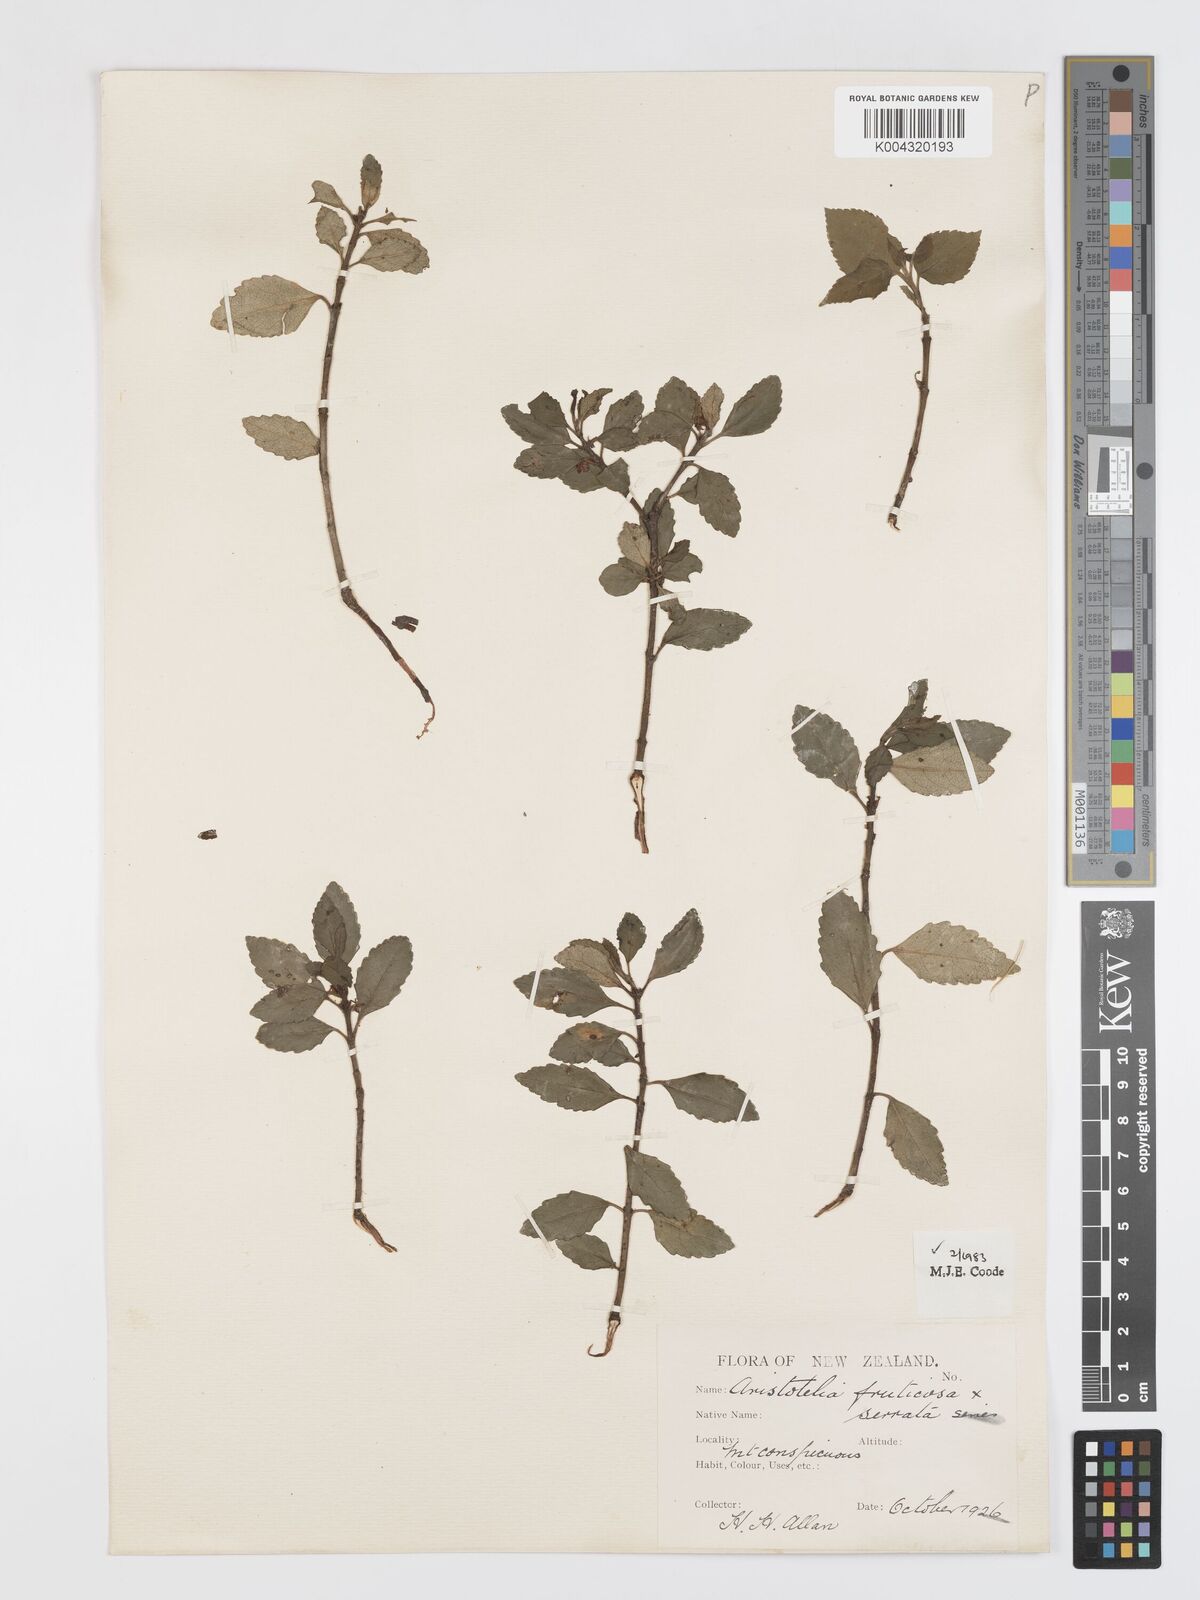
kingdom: Plantae
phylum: Tracheophyta
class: Magnoliopsida
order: Oxalidales
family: Elaeocarpaceae
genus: Aristotelia
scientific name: Aristotelia fruticosa
